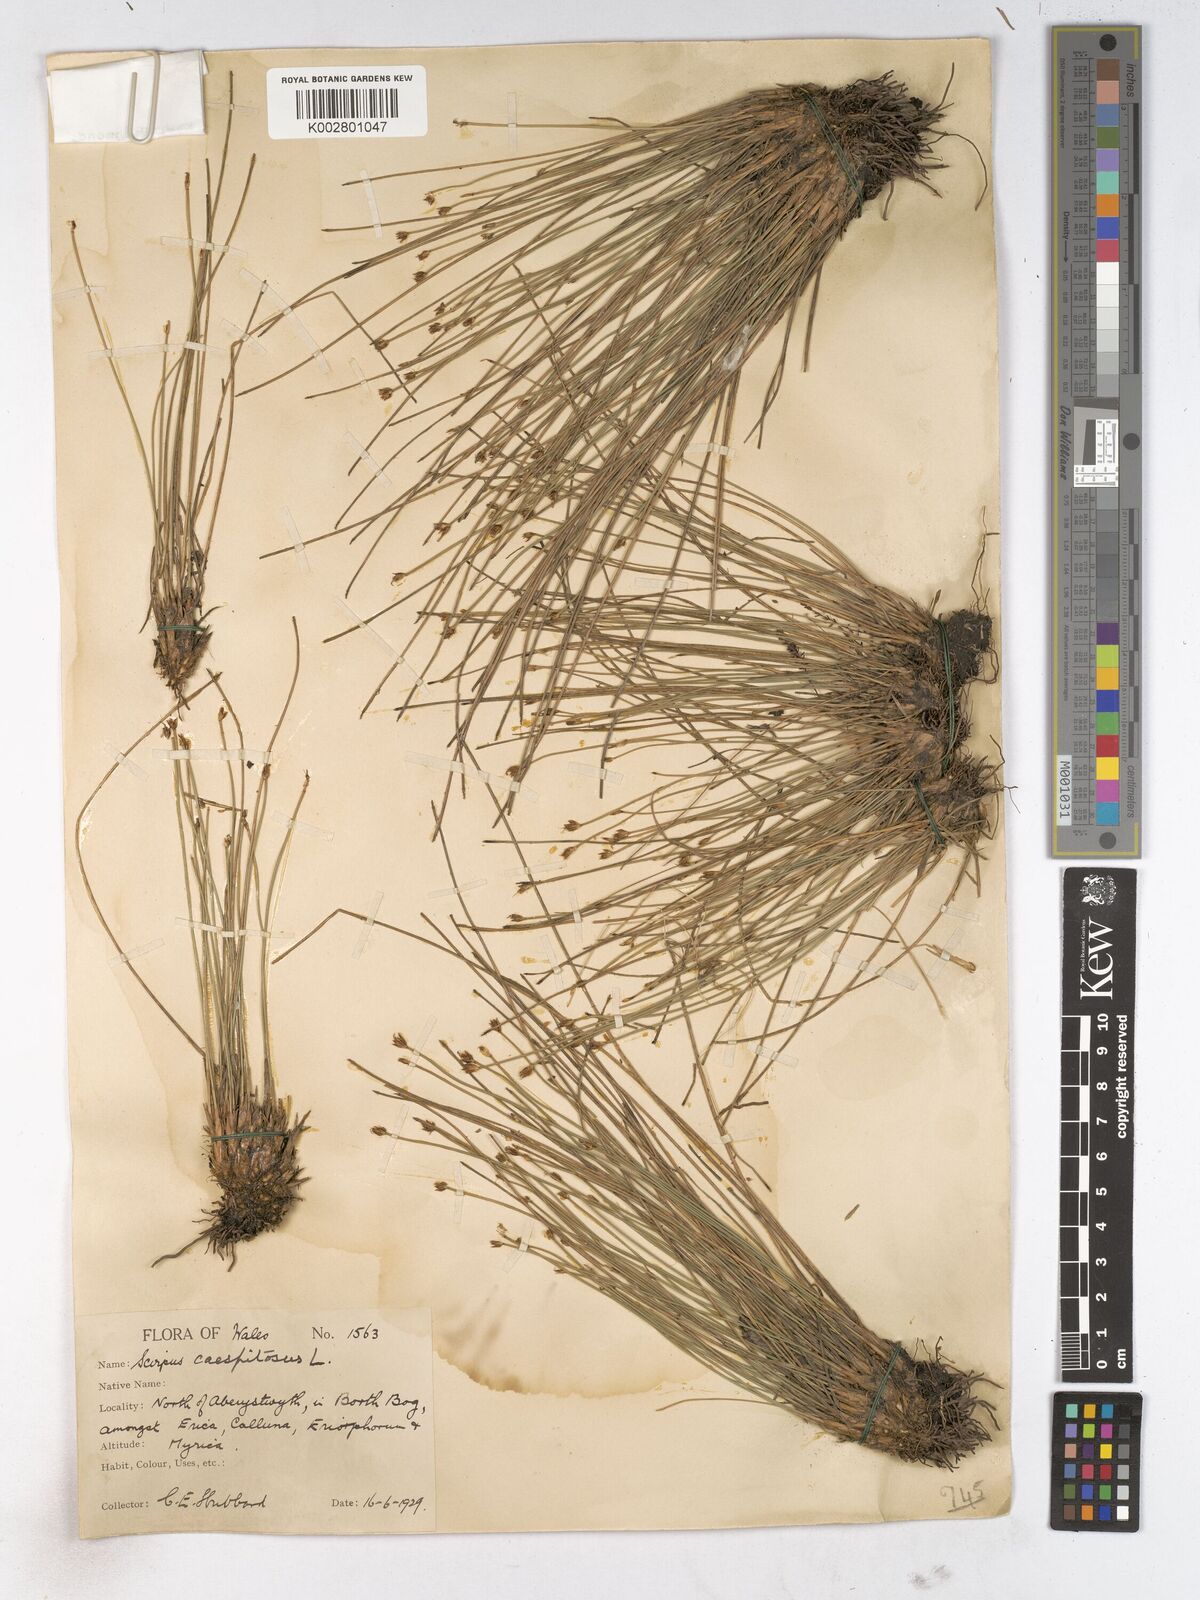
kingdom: Plantae
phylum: Tracheophyta
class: Liliopsida
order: Poales
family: Cyperaceae
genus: Trichophorum
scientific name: Trichophorum cespitosum
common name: Cespitose bulrush
